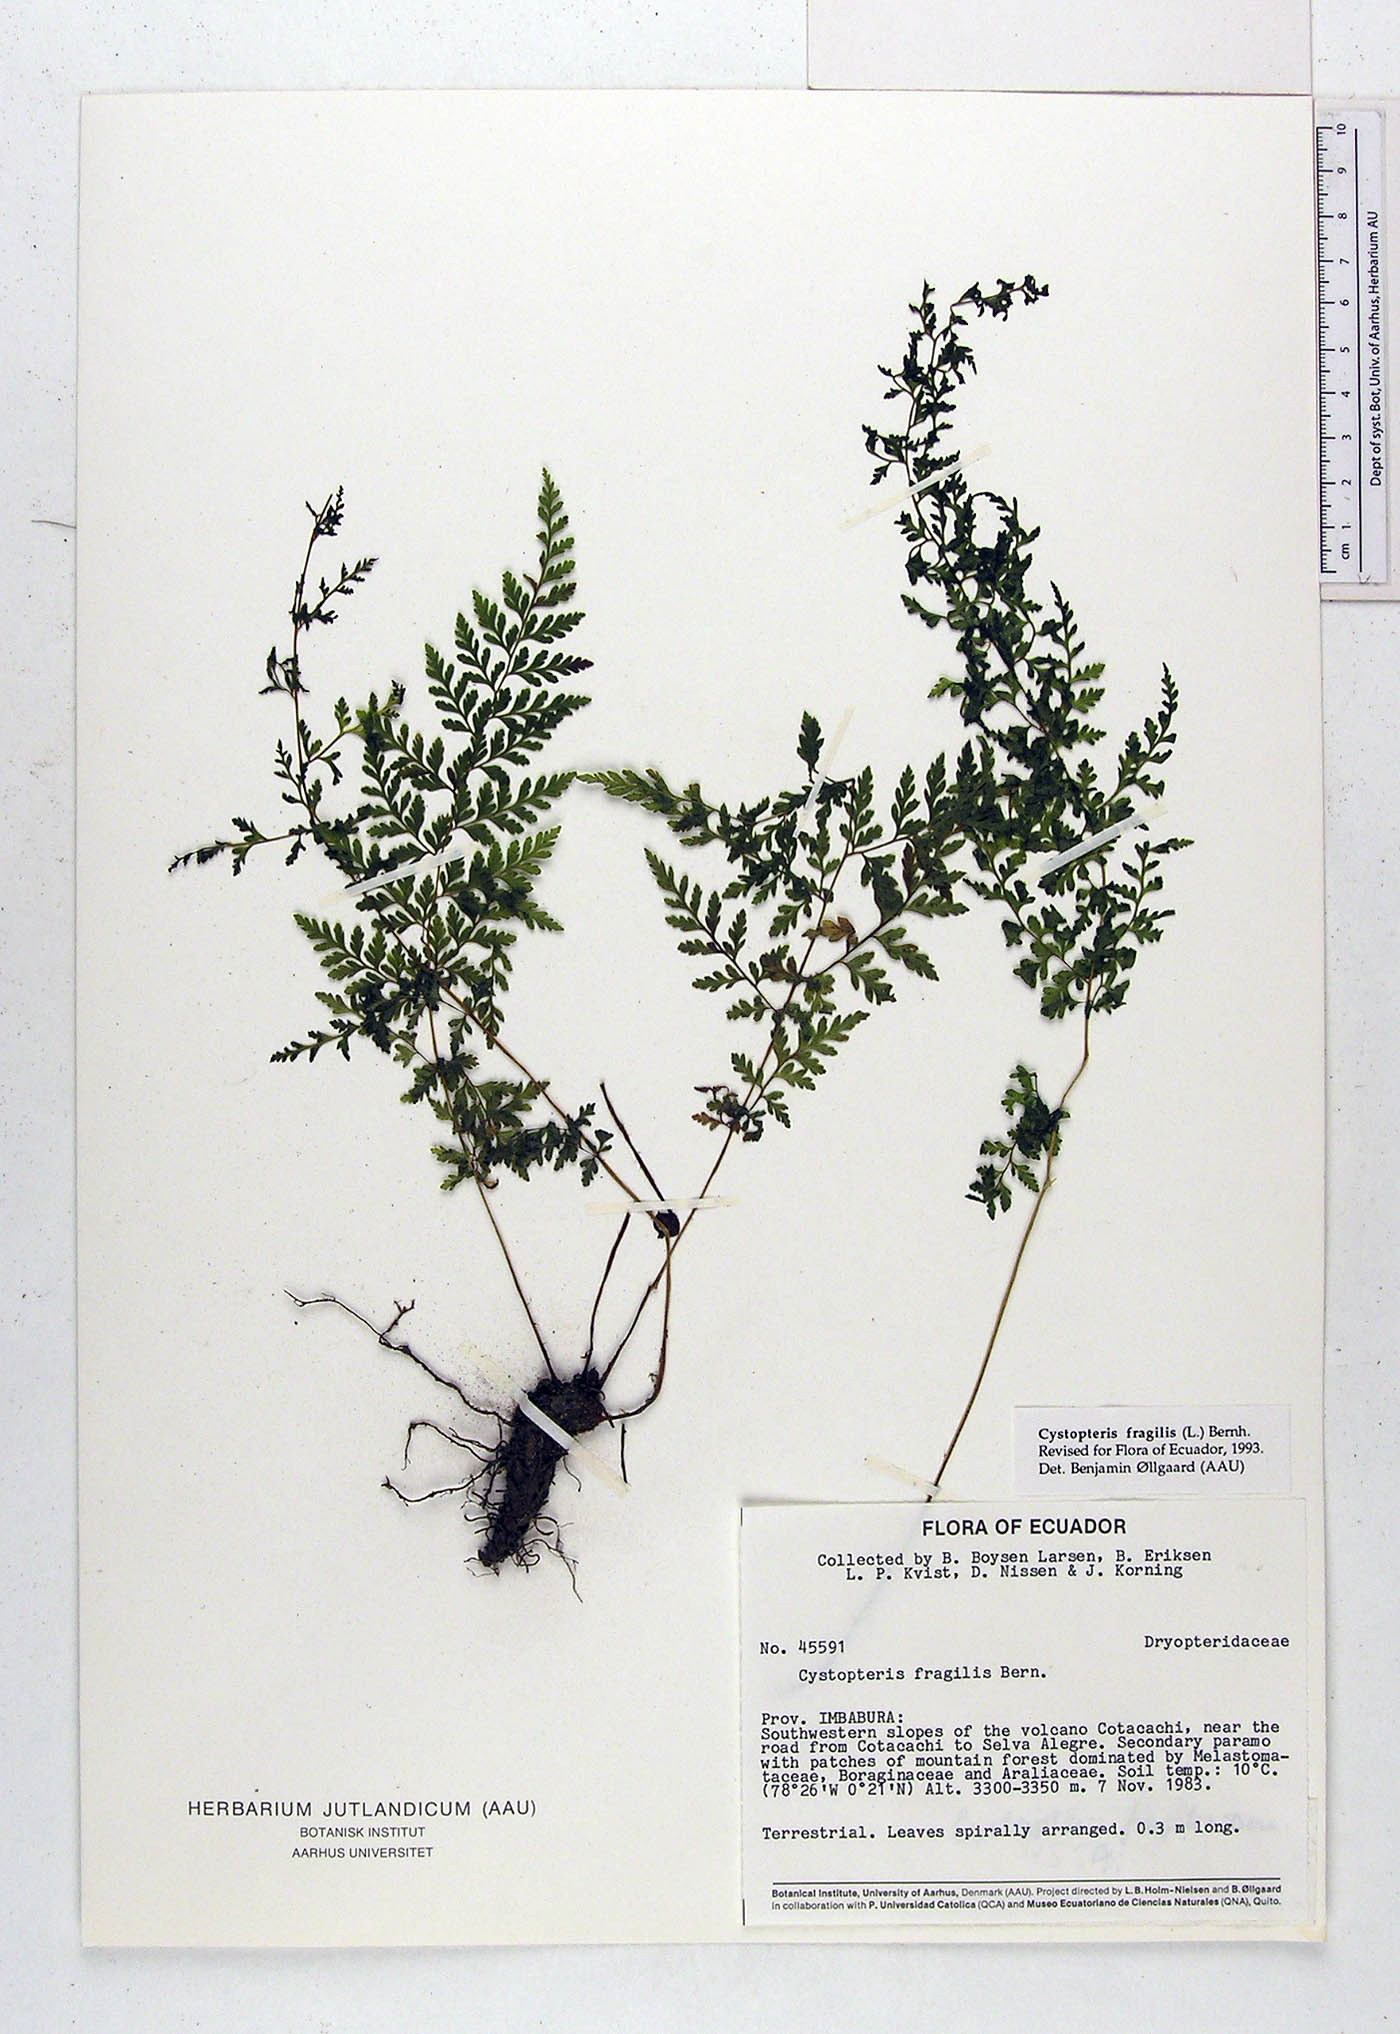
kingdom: Plantae
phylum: Tracheophyta
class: Polypodiopsida
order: Polypodiales
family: Cystopteridaceae
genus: Cystopteris
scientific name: Cystopteris fragilis
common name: Brittle bladder fern
